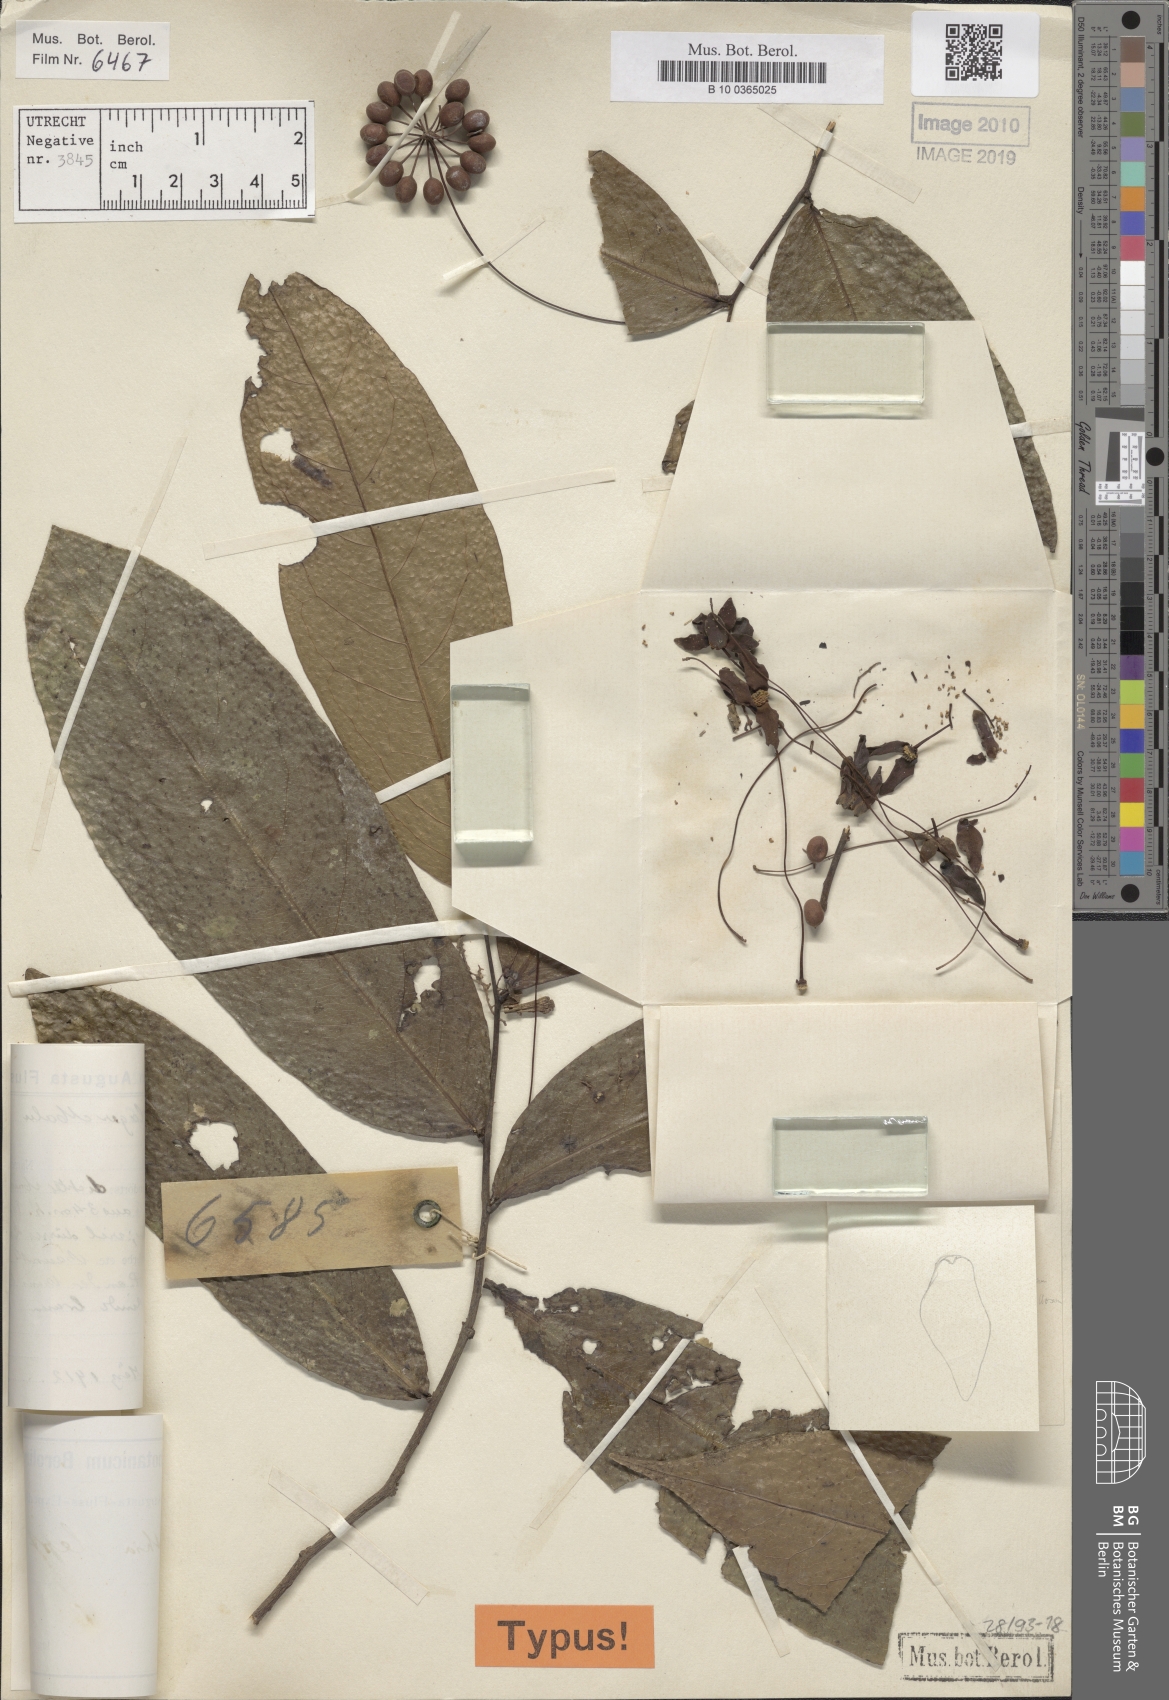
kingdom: Plantae
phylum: Tracheophyta
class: Magnoliopsida
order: Magnoliales
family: Annonaceae
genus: Hubera
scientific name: Hubera leptopoda
